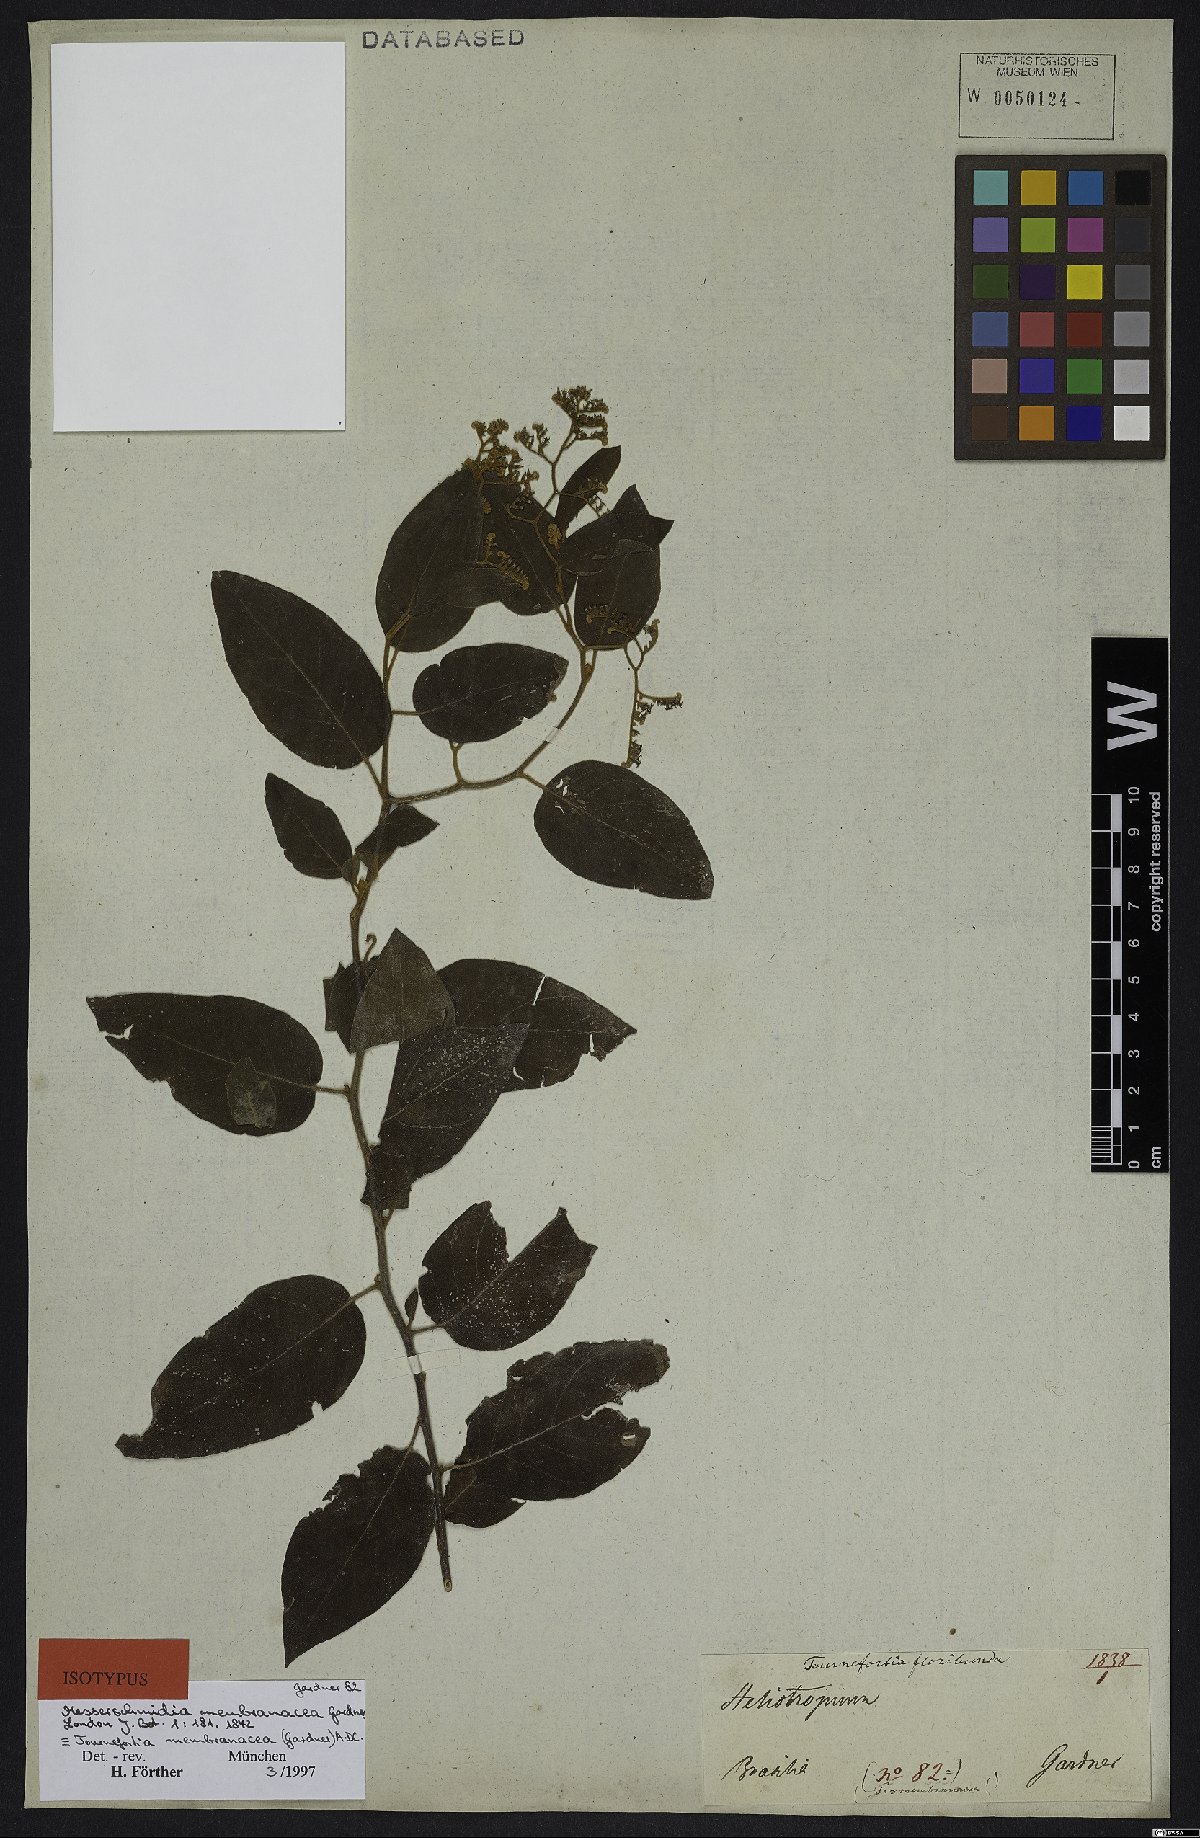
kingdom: Plantae
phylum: Tracheophyta
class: Magnoliopsida
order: Boraginales
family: Heliotropiaceae
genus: Myriopus
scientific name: Myriopus membranaceus
